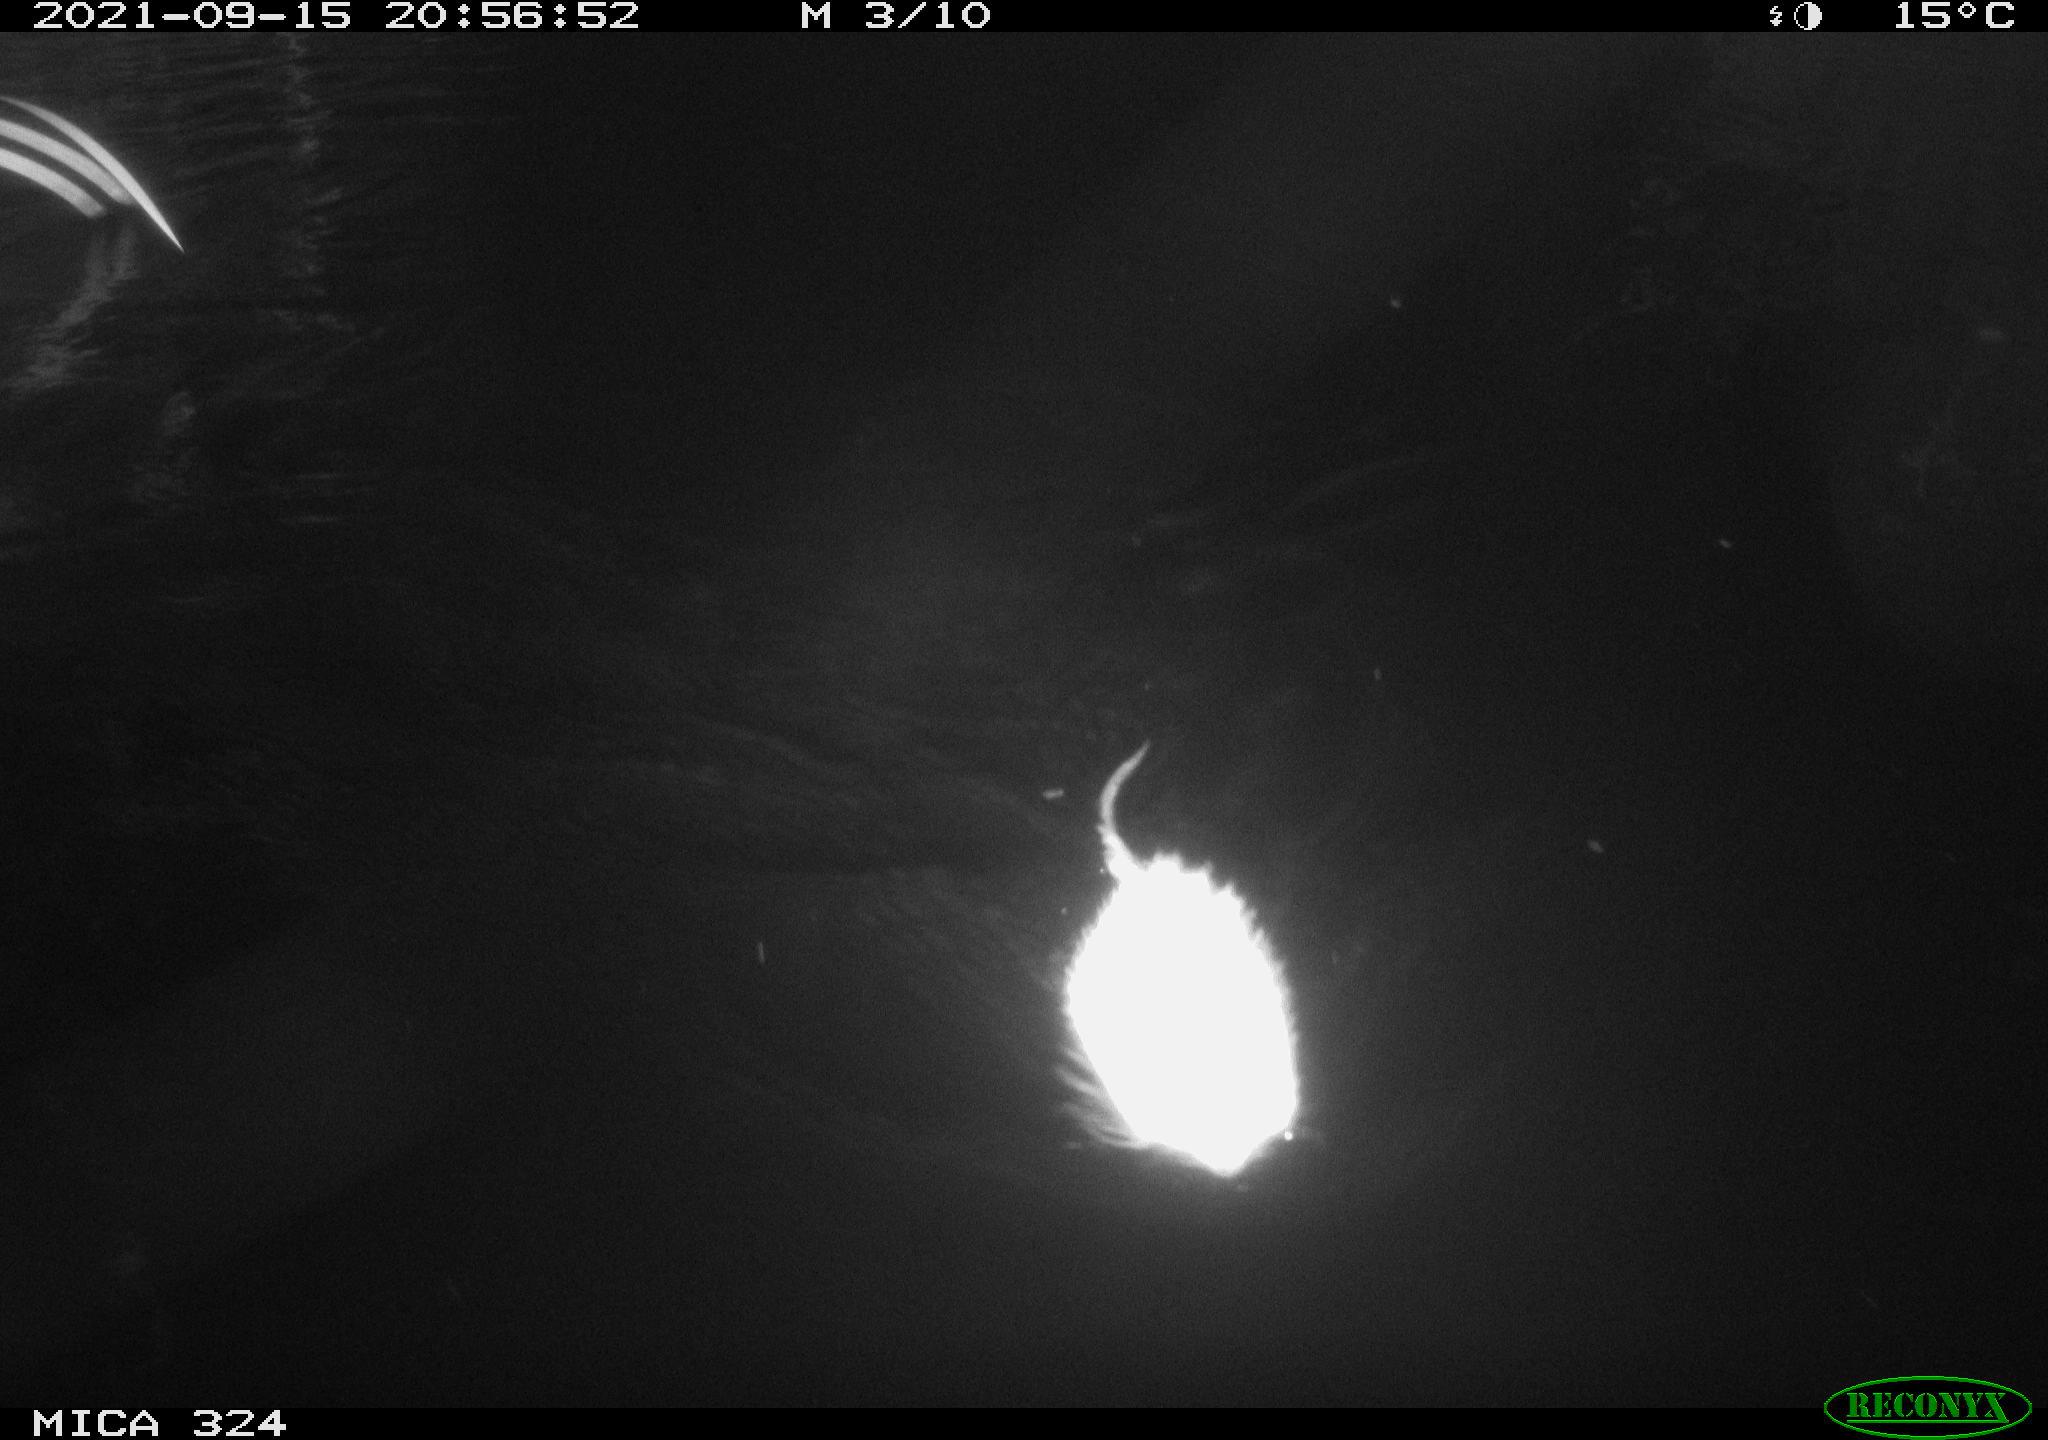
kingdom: Animalia
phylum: Chordata
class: Mammalia
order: Rodentia
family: Cricetidae
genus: Ondatra
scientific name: Ondatra zibethicus
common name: Muskrat
